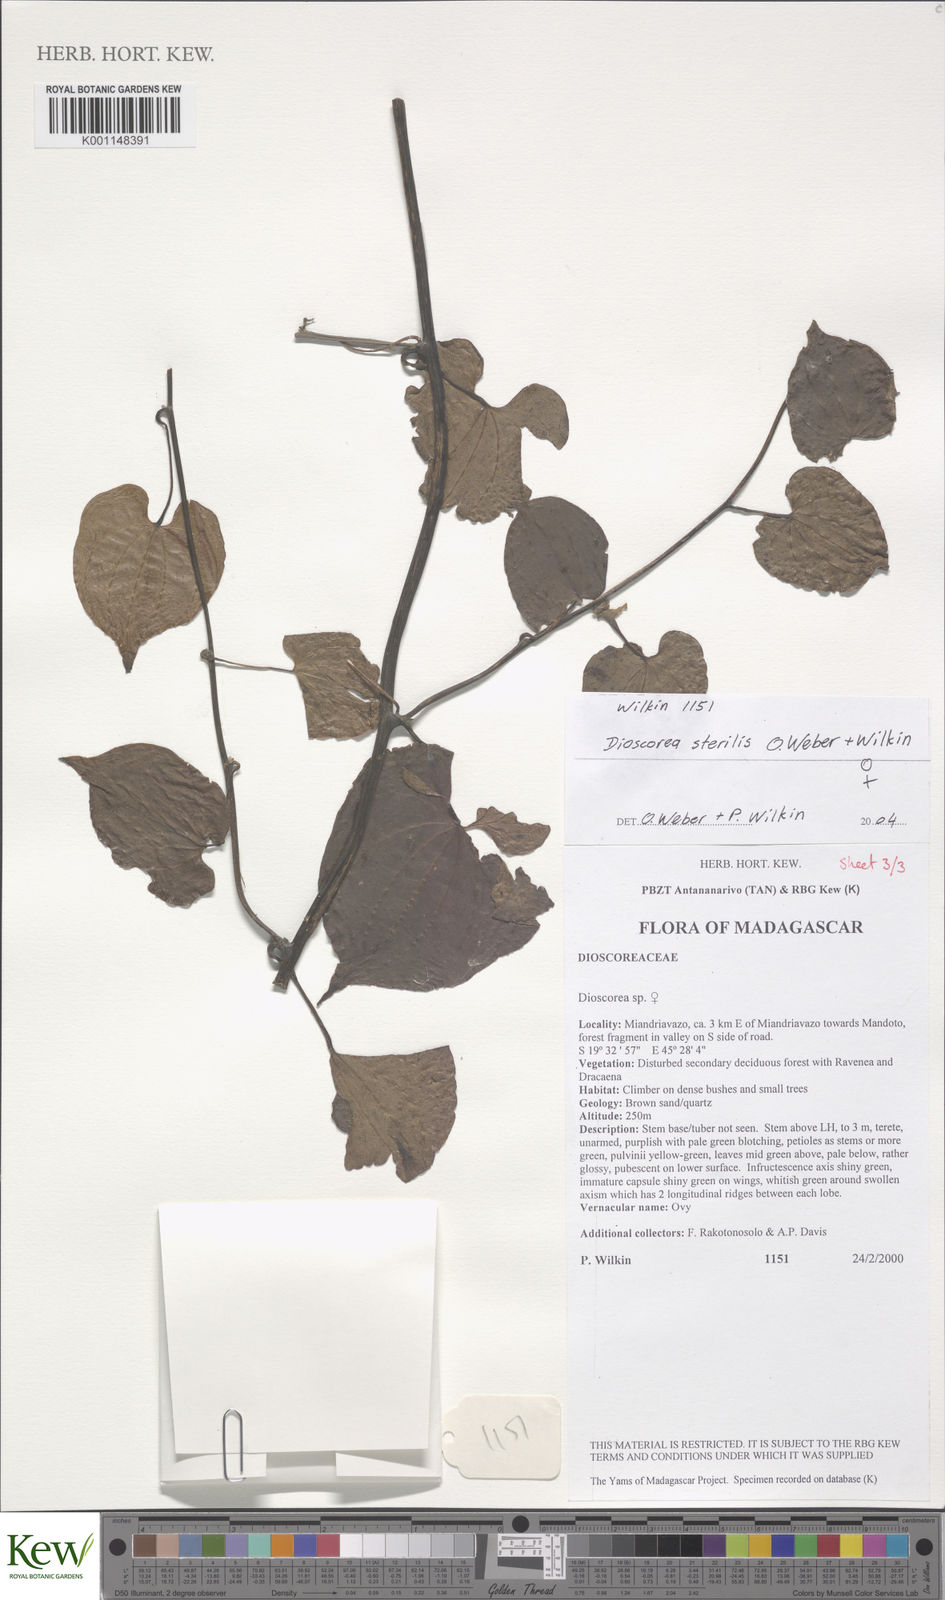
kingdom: Plantae
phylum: Tracheophyta
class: Liliopsida
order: Dioscoreales
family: Dioscoreaceae
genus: Dioscorea
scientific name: Dioscorea sterilis
